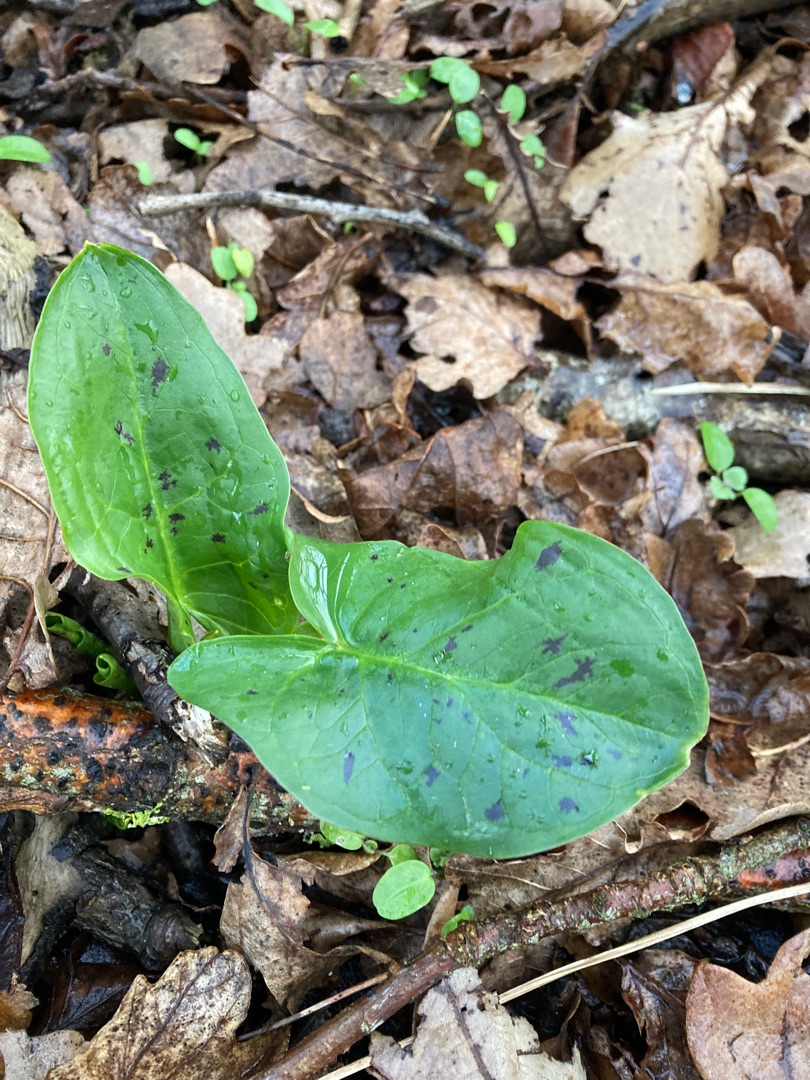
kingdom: Plantae
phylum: Tracheophyta
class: Liliopsida
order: Alismatales
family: Araceae
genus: Arum
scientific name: Arum maculatum
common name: Plettet arum
